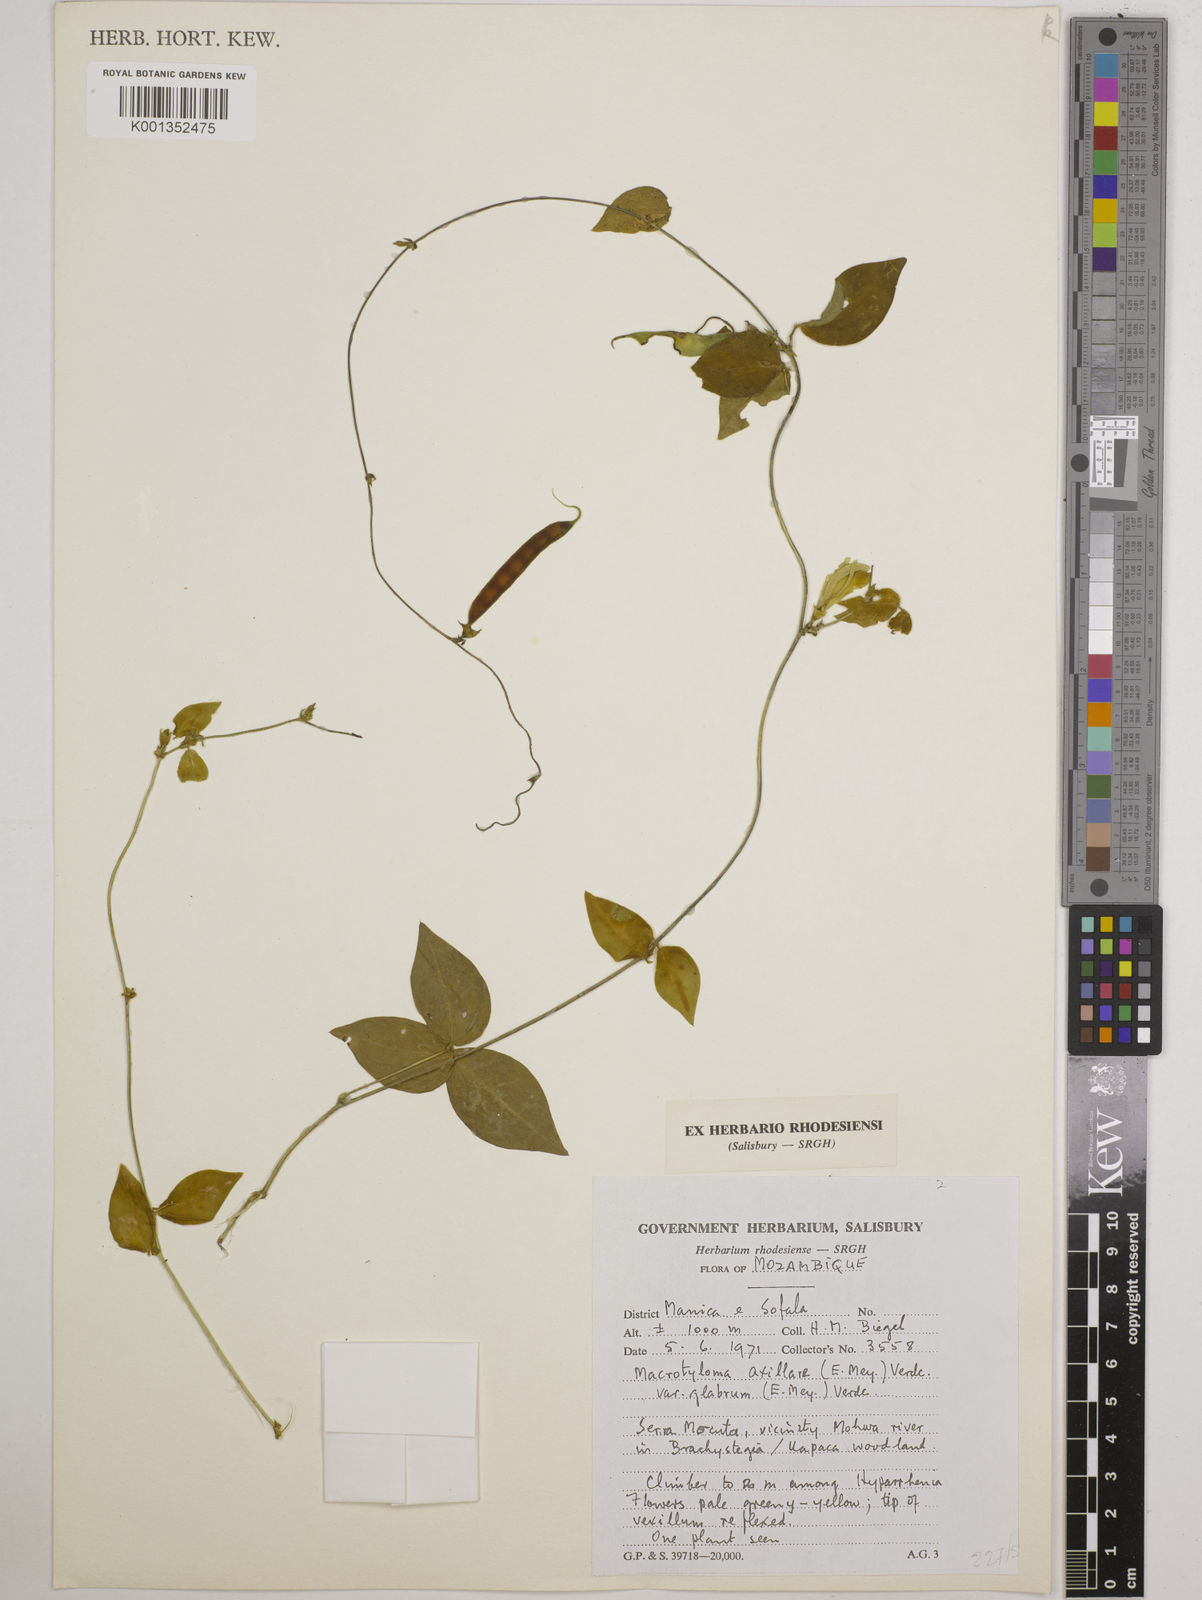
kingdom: Plantae
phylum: Tracheophyta
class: Magnoliopsida
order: Fabales
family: Fabaceae
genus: Macrotyloma
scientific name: Macrotyloma
